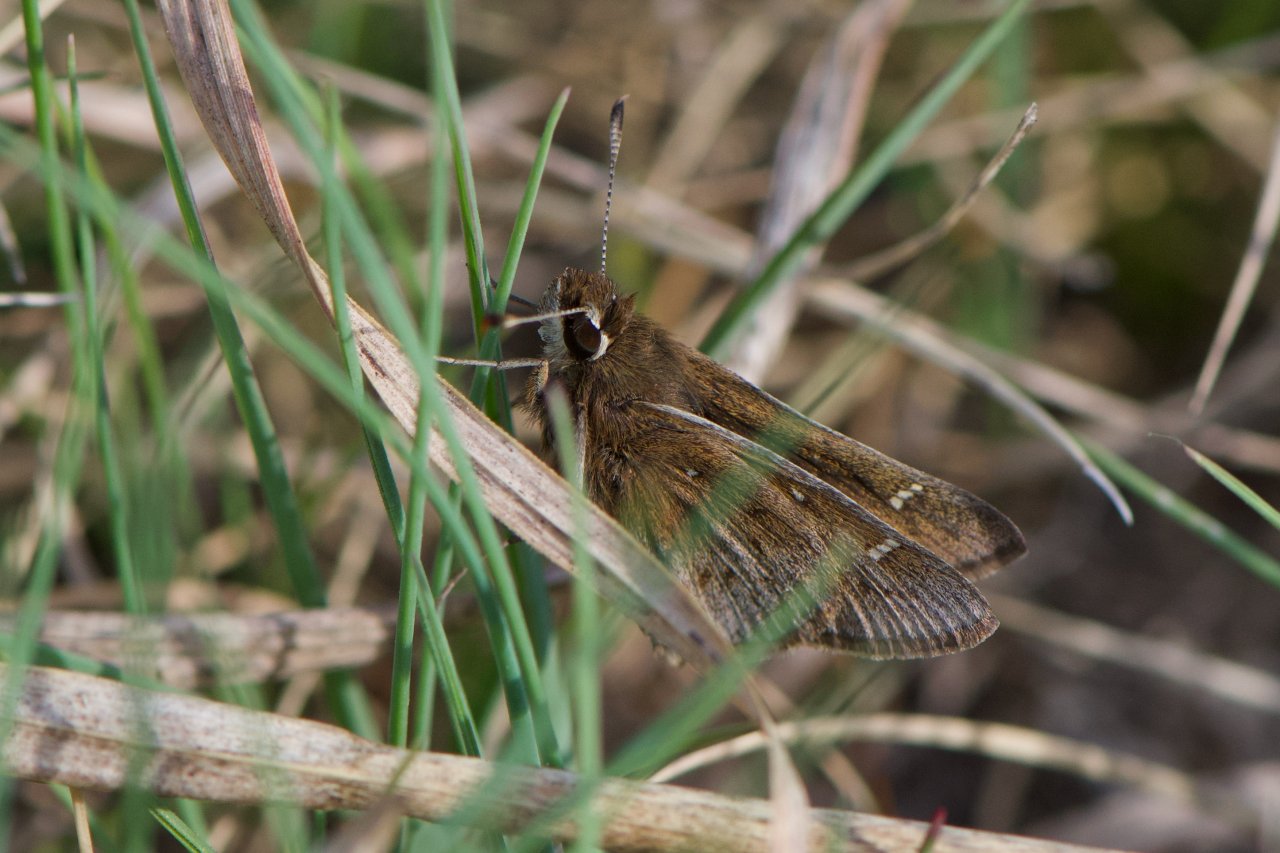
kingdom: Animalia
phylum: Arthropoda
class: Insecta
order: Lepidoptera
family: Hesperiidae
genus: Atrytonopsis
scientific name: Atrytonopsis hianna
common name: Dusted Skipper
